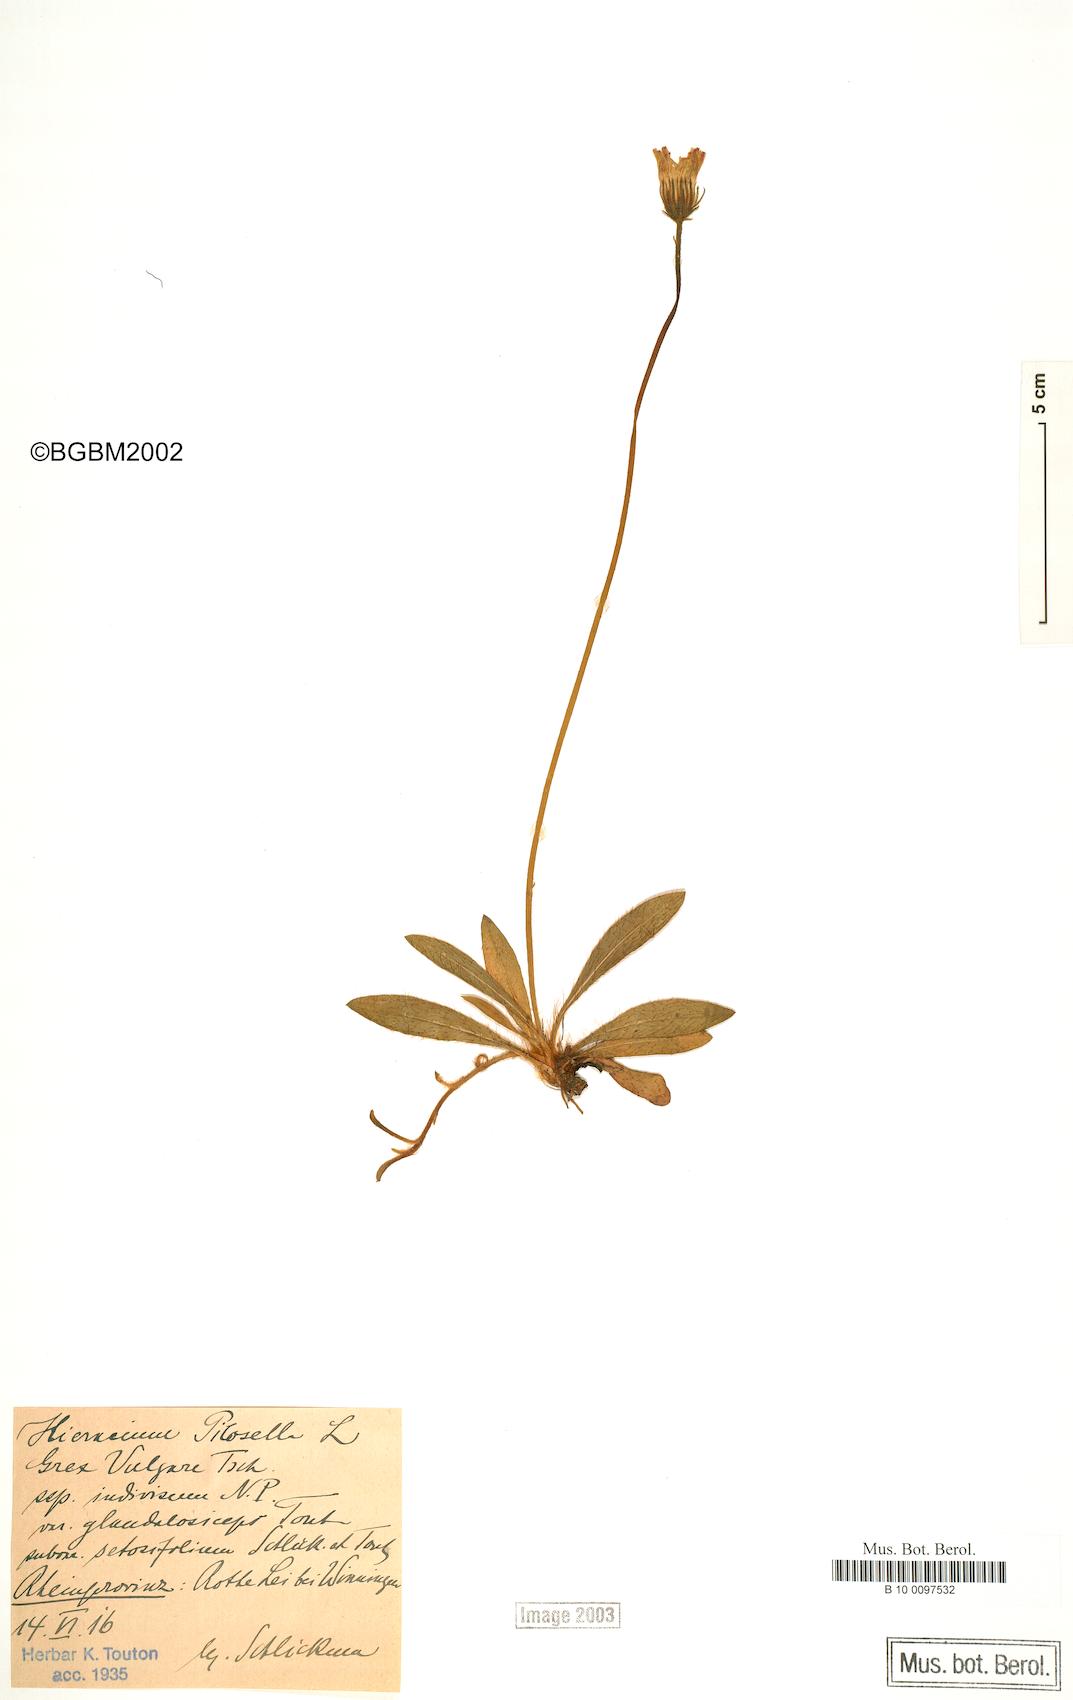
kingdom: Plantae
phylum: Tracheophyta
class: Magnoliopsida
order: Asterales
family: Asteraceae
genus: Pilosella
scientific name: Pilosella officinarum
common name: Mouse-ear hawkweed
